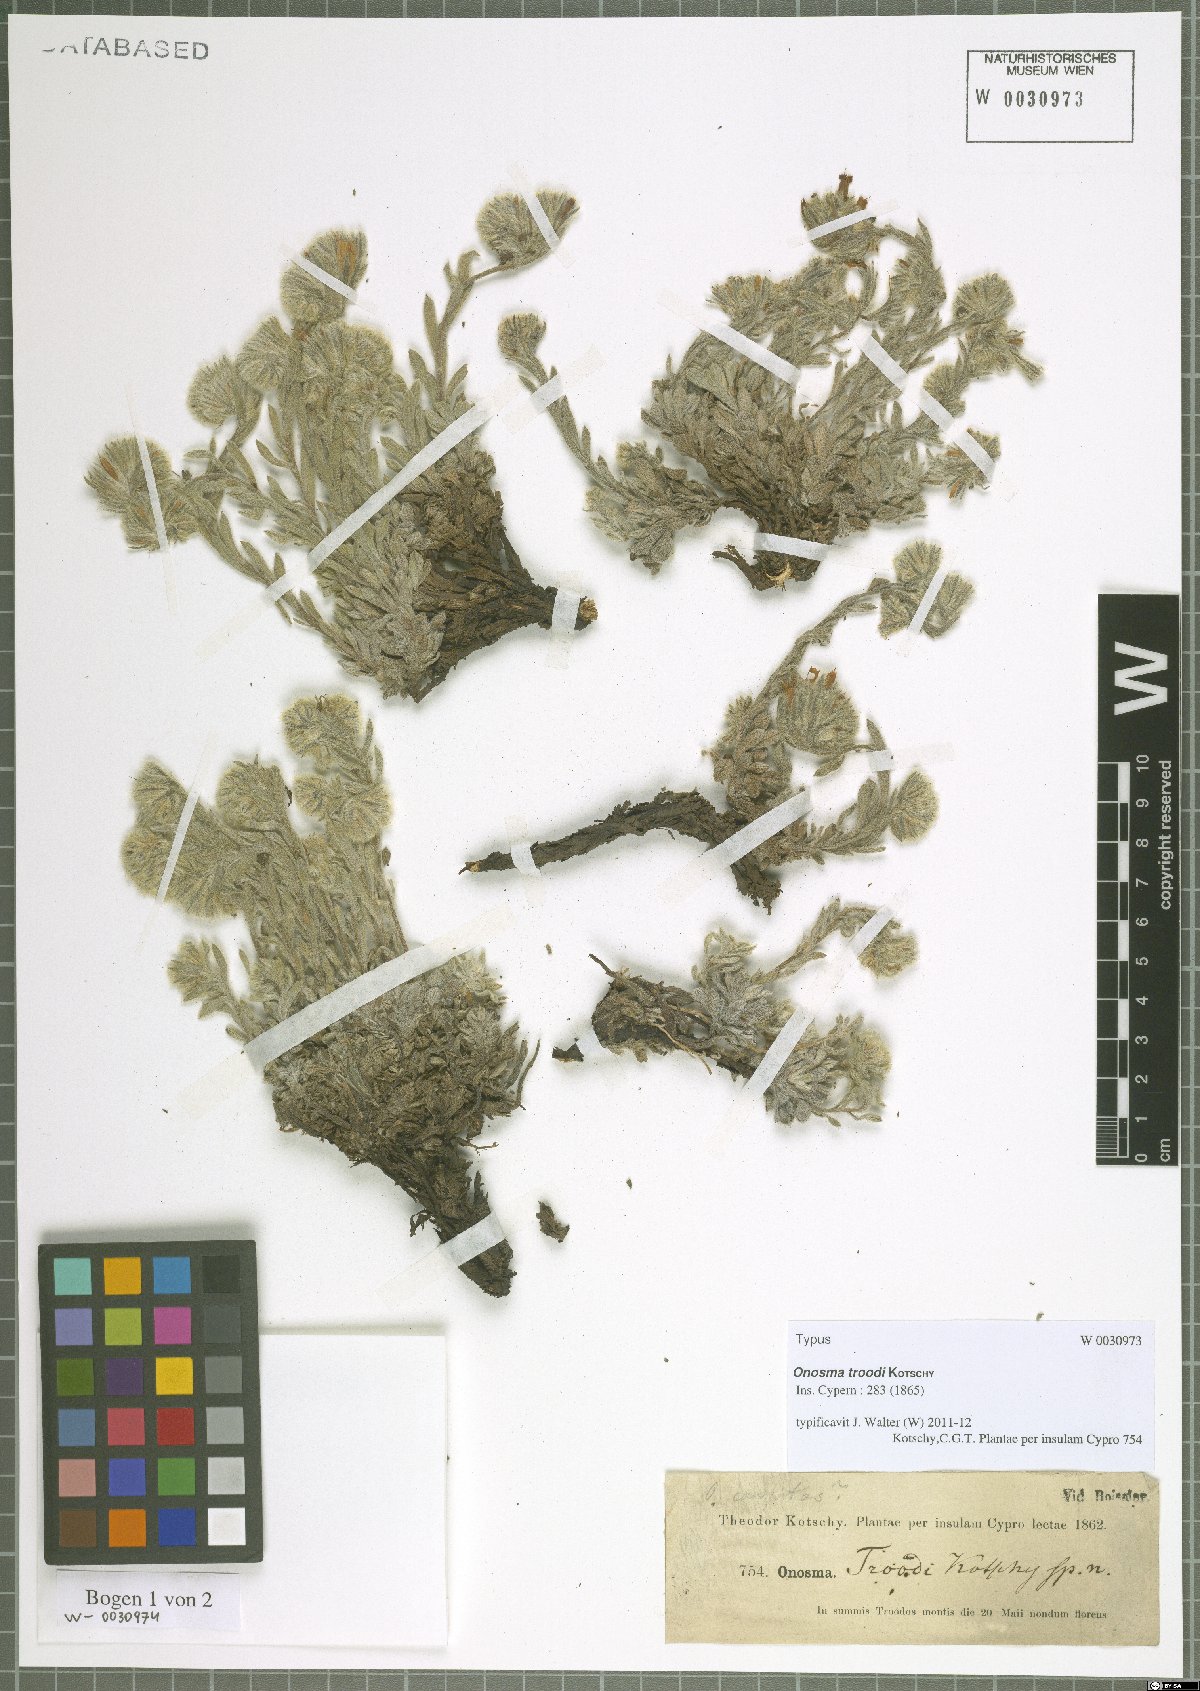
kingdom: Plantae
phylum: Tracheophyta
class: Magnoliopsida
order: Boraginales
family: Boraginaceae
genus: Onosma
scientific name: Onosma troodi
